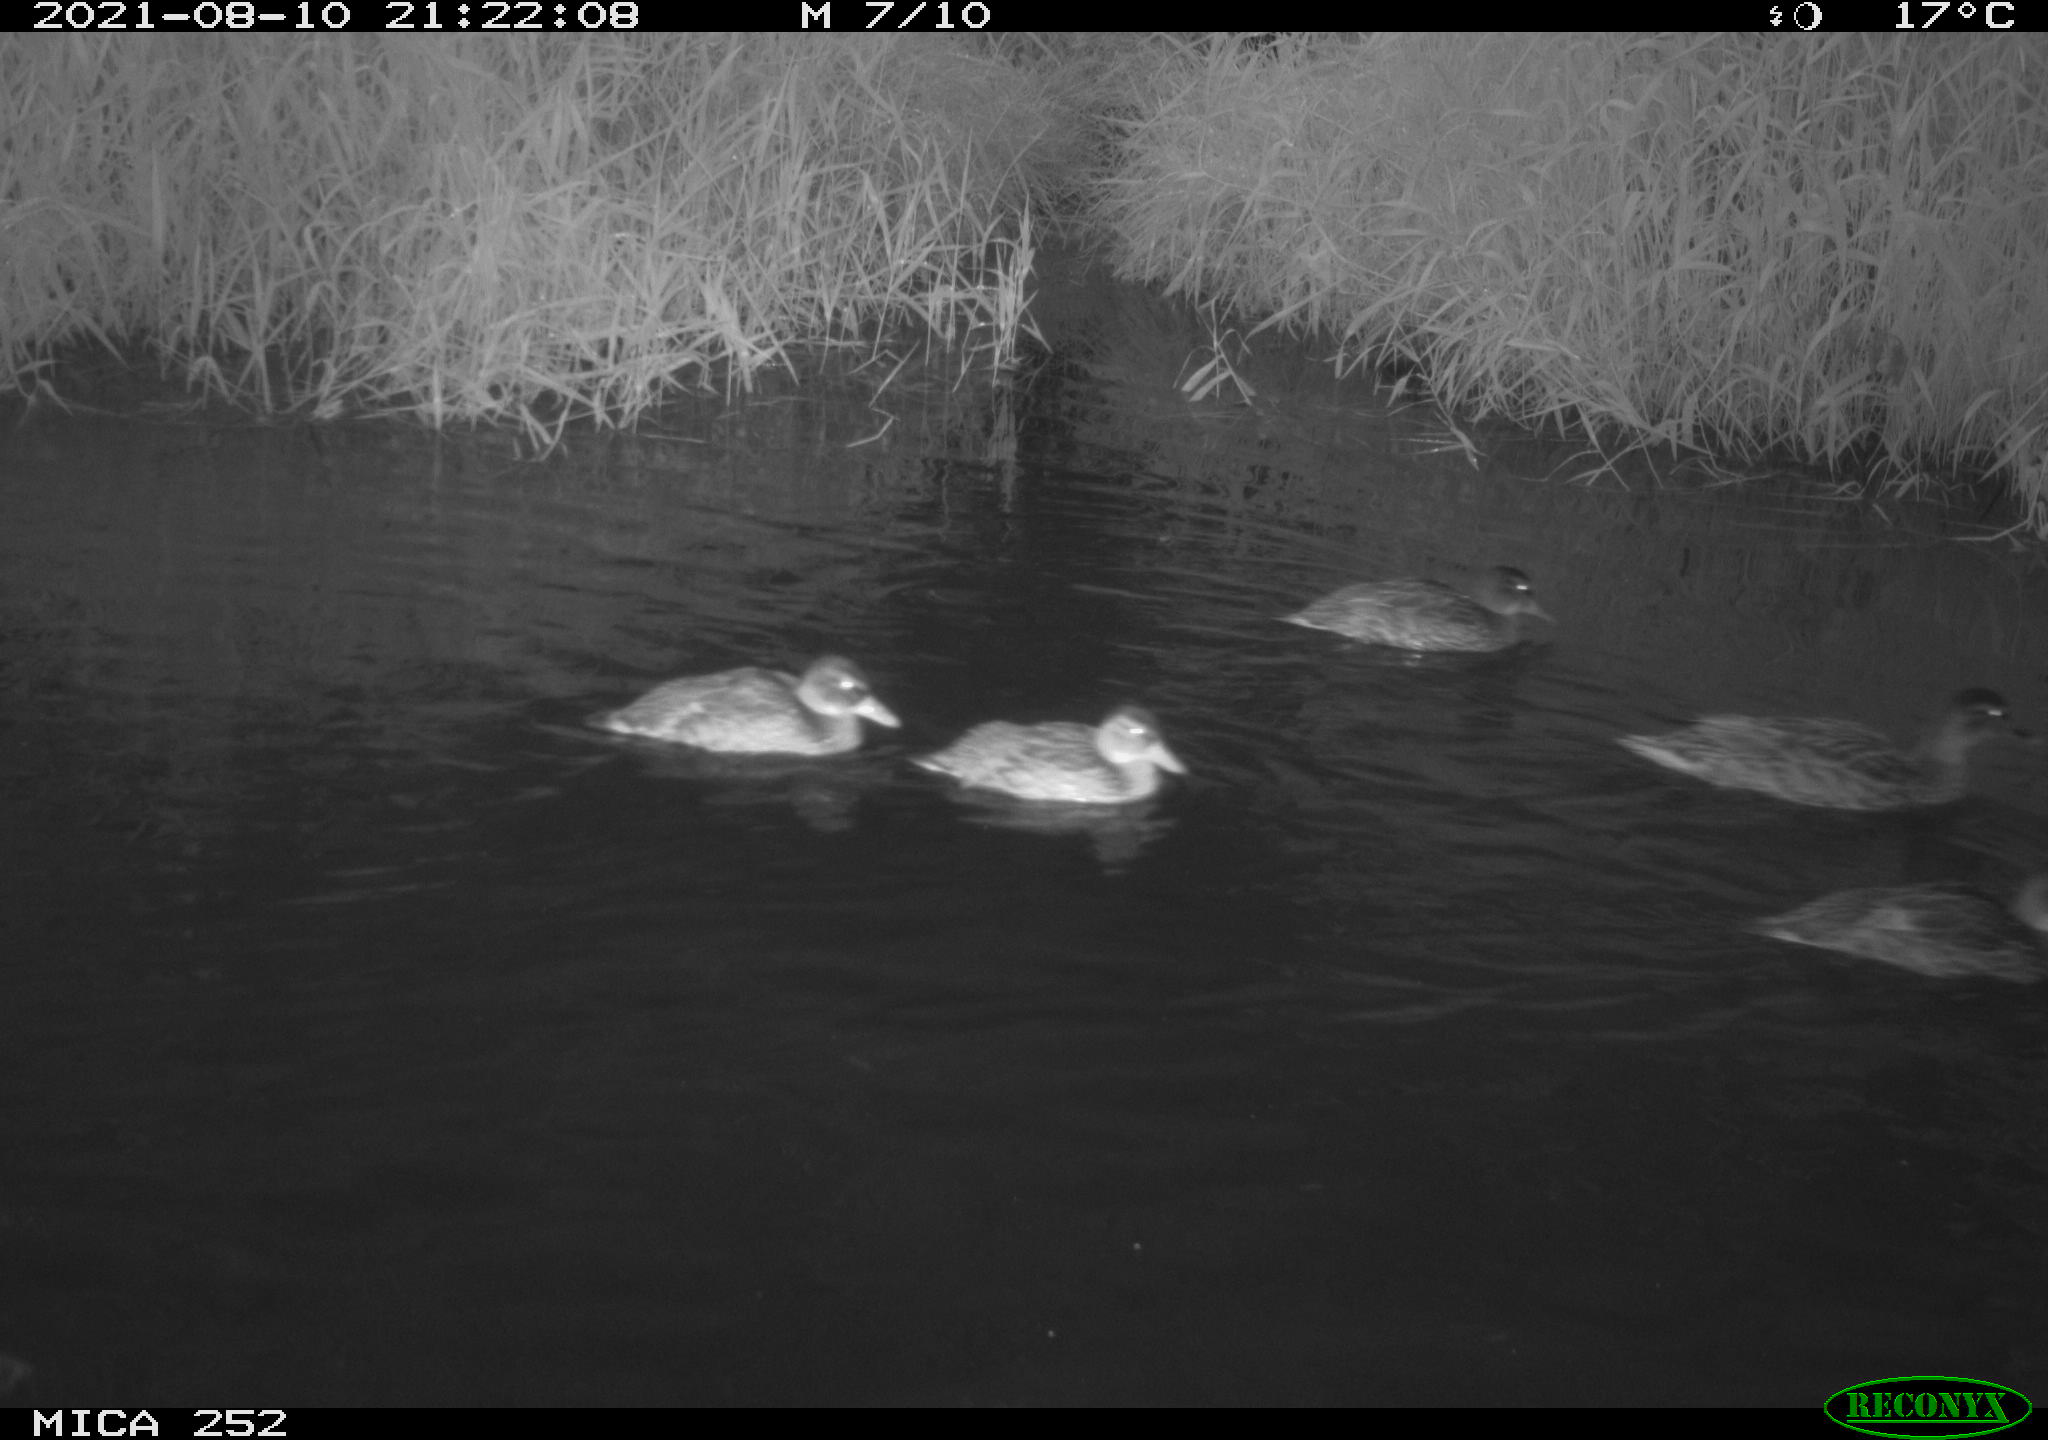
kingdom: Animalia
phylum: Chordata
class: Aves
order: Anseriformes
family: Anatidae
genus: Anas
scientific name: Anas platyrhynchos
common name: Mallard
